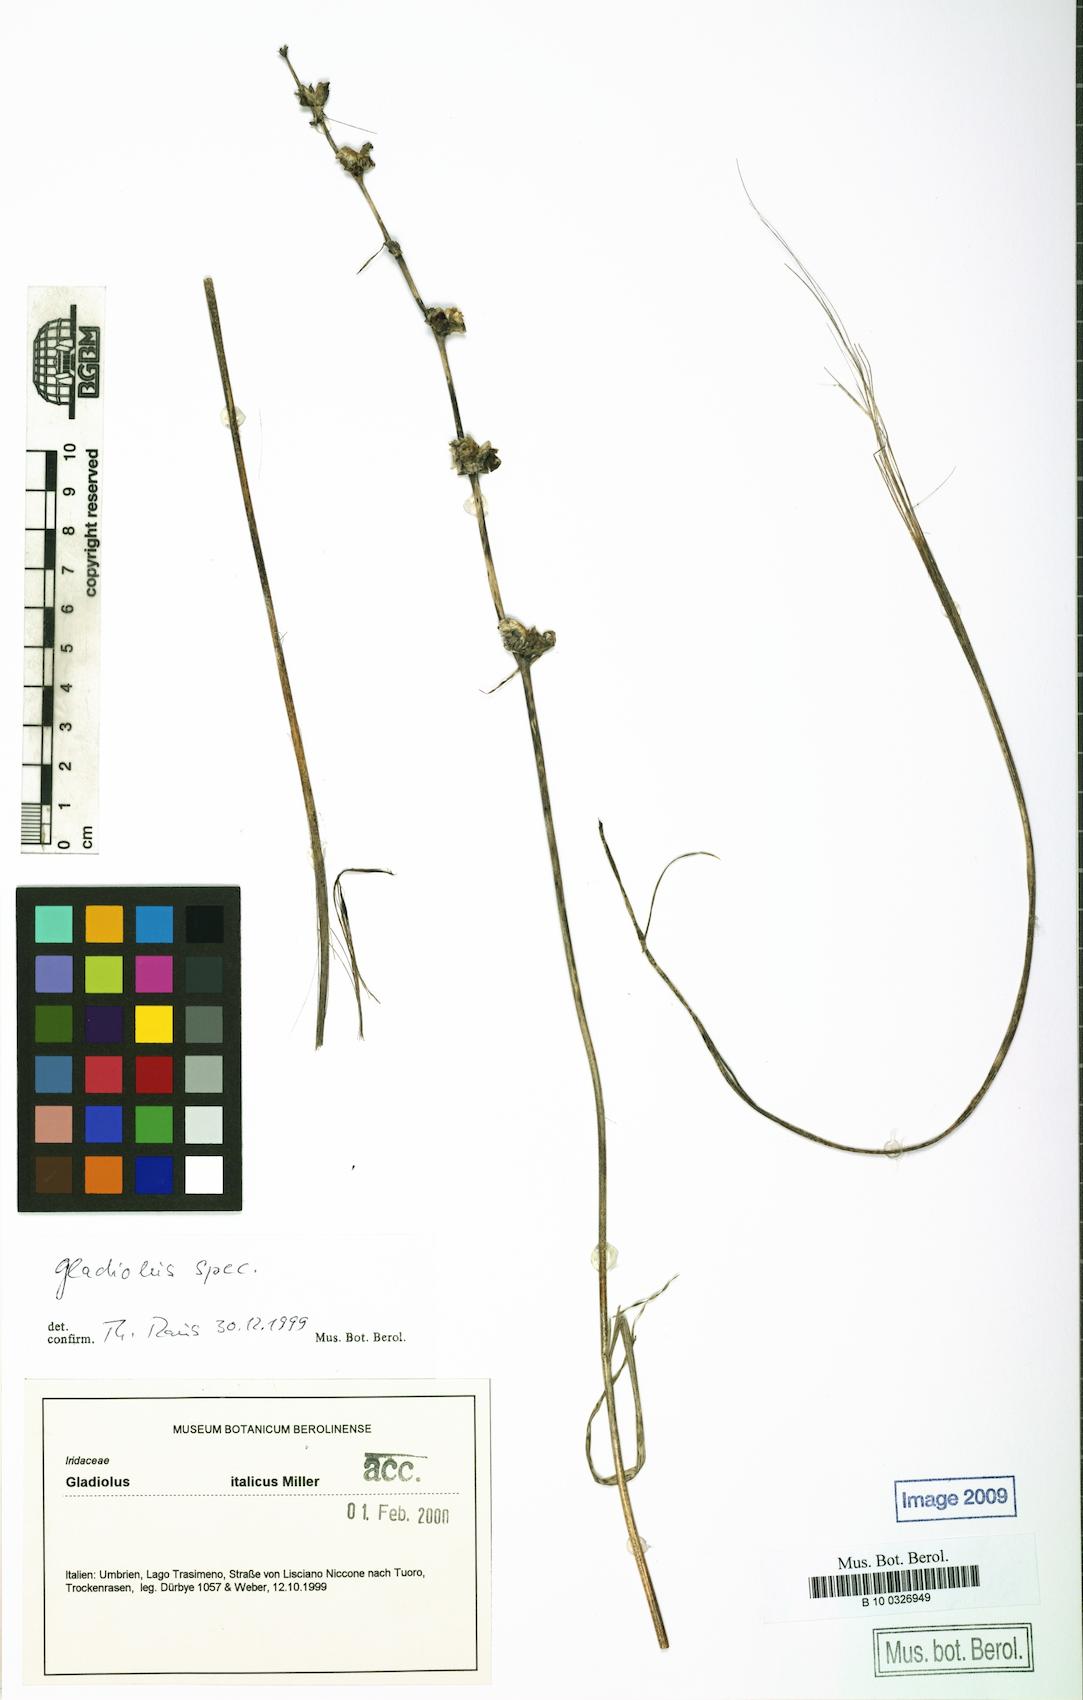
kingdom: Plantae
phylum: Tracheophyta
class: Liliopsida
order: Asparagales
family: Iridaceae
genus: Gladiolus
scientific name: Gladiolus
